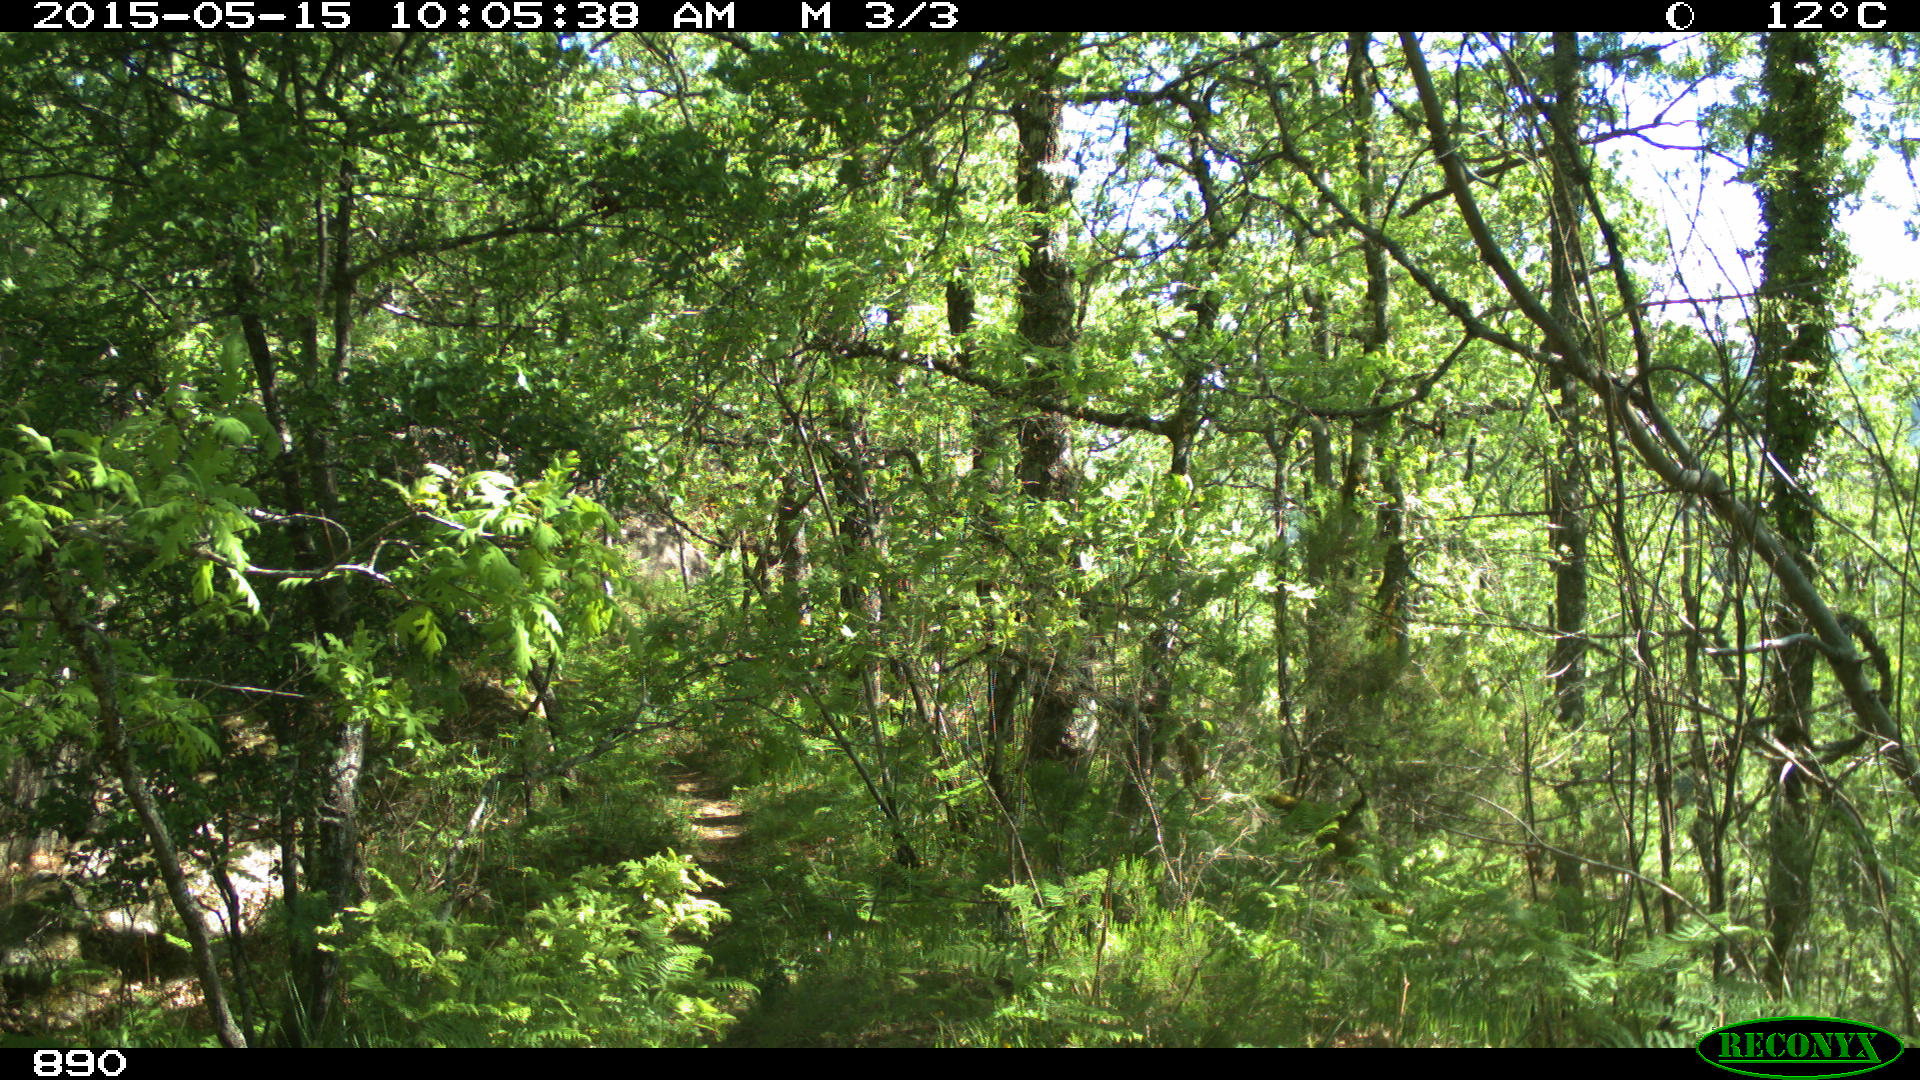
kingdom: Animalia
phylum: Chordata
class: Mammalia
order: Artiodactyla
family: Cervidae
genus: Capreolus
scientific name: Capreolus capreolus
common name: Western roe deer
